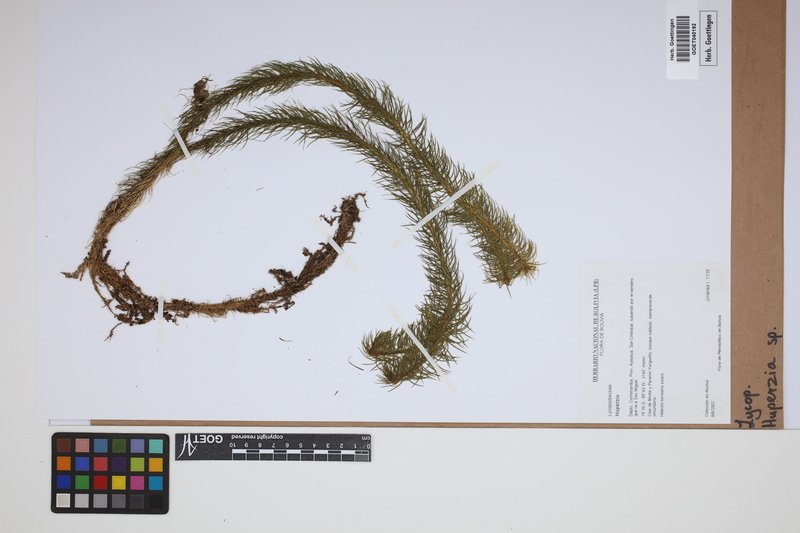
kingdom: Plantae
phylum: Tracheophyta
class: Lycopodiopsida
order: Lycopodiales
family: Lycopodiaceae
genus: Phlegmariurus
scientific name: Phlegmariurus
